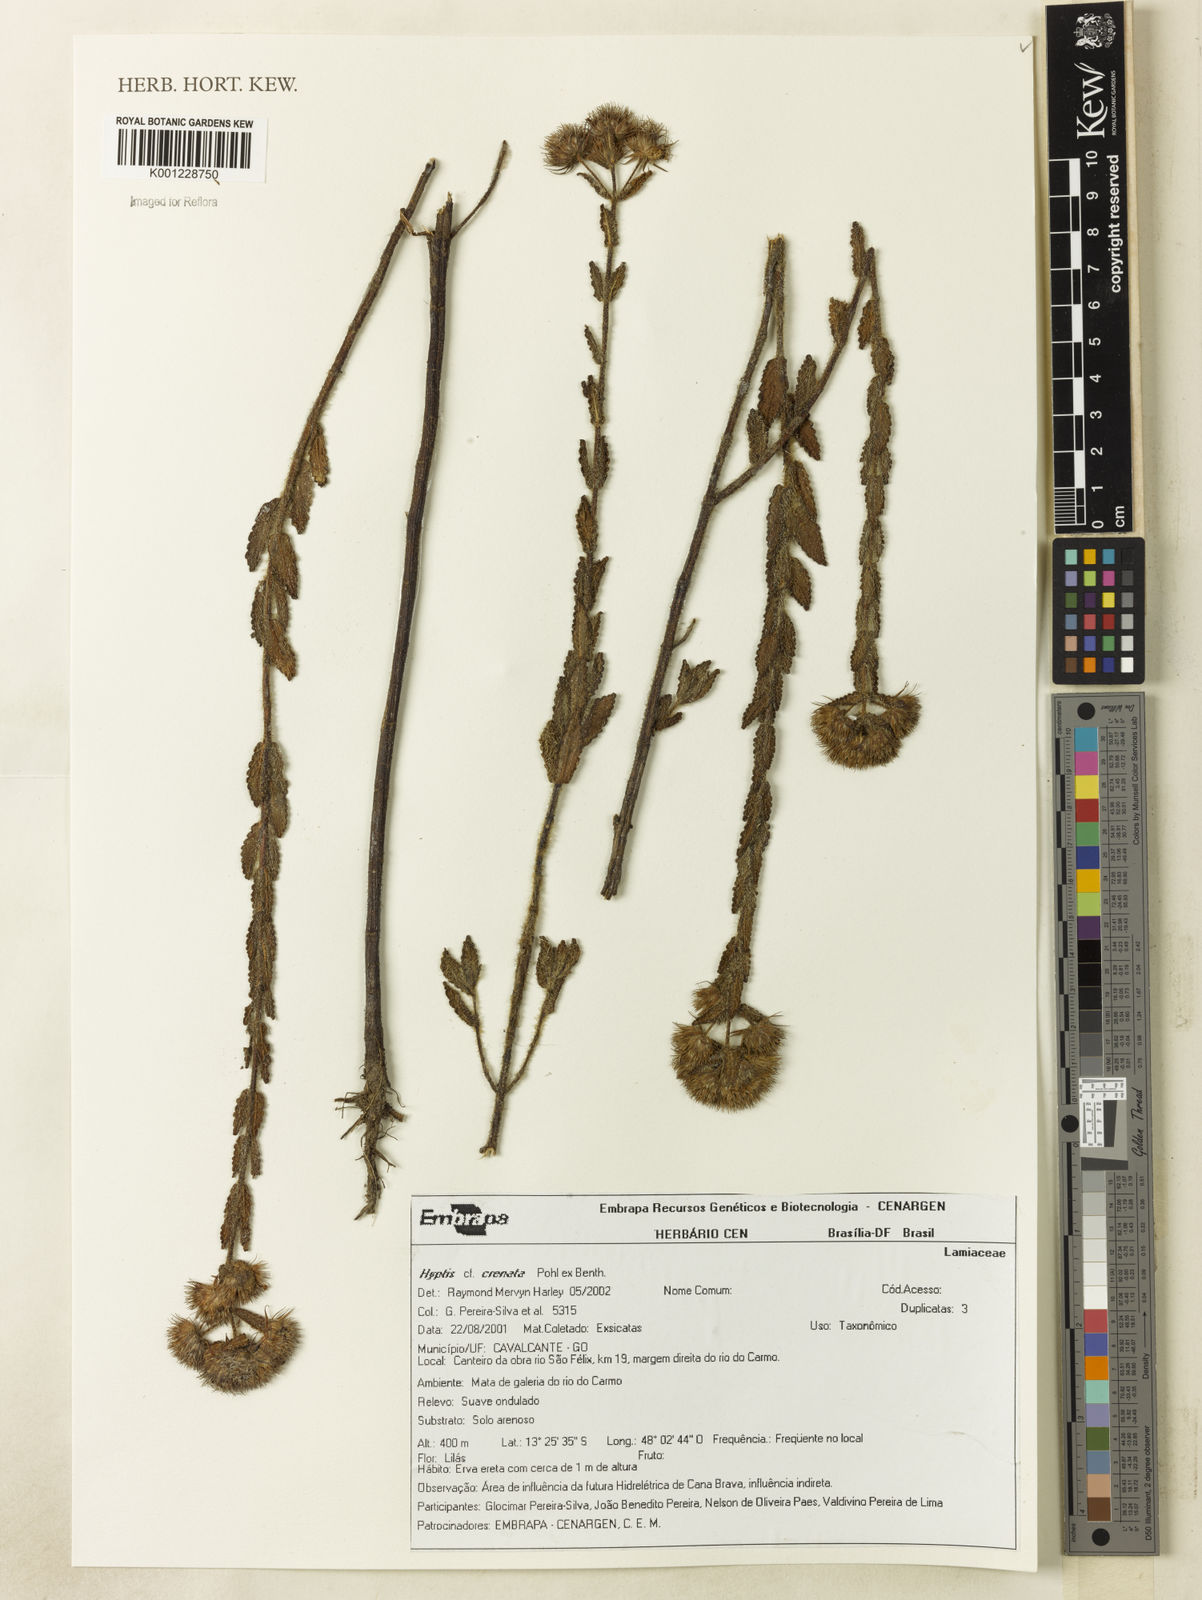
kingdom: Plantae
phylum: Tracheophyta
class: Magnoliopsida
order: Lamiales
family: Lamiaceae
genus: Hyptis
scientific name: Hyptis crenata
